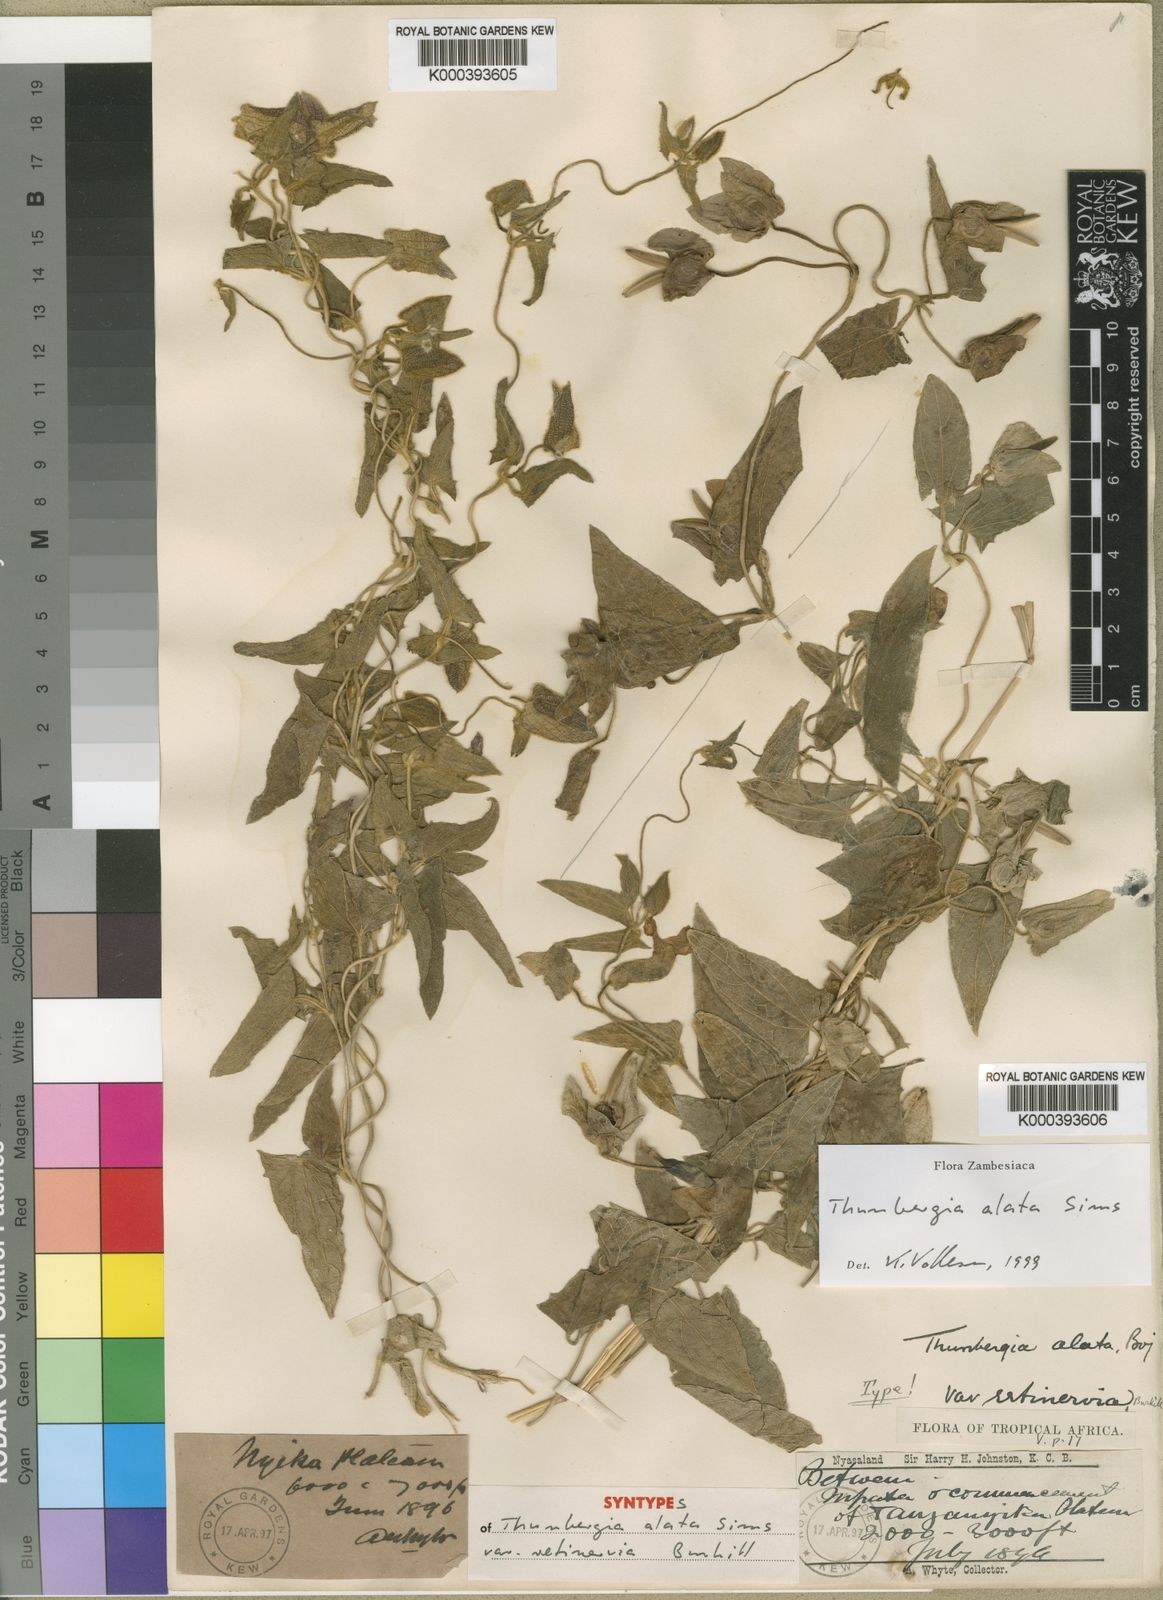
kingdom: Plantae
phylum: Tracheophyta
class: Magnoliopsida
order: Lamiales
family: Acanthaceae
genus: Thunbergia
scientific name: Thunbergia alata
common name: Blackeyed susan vine
